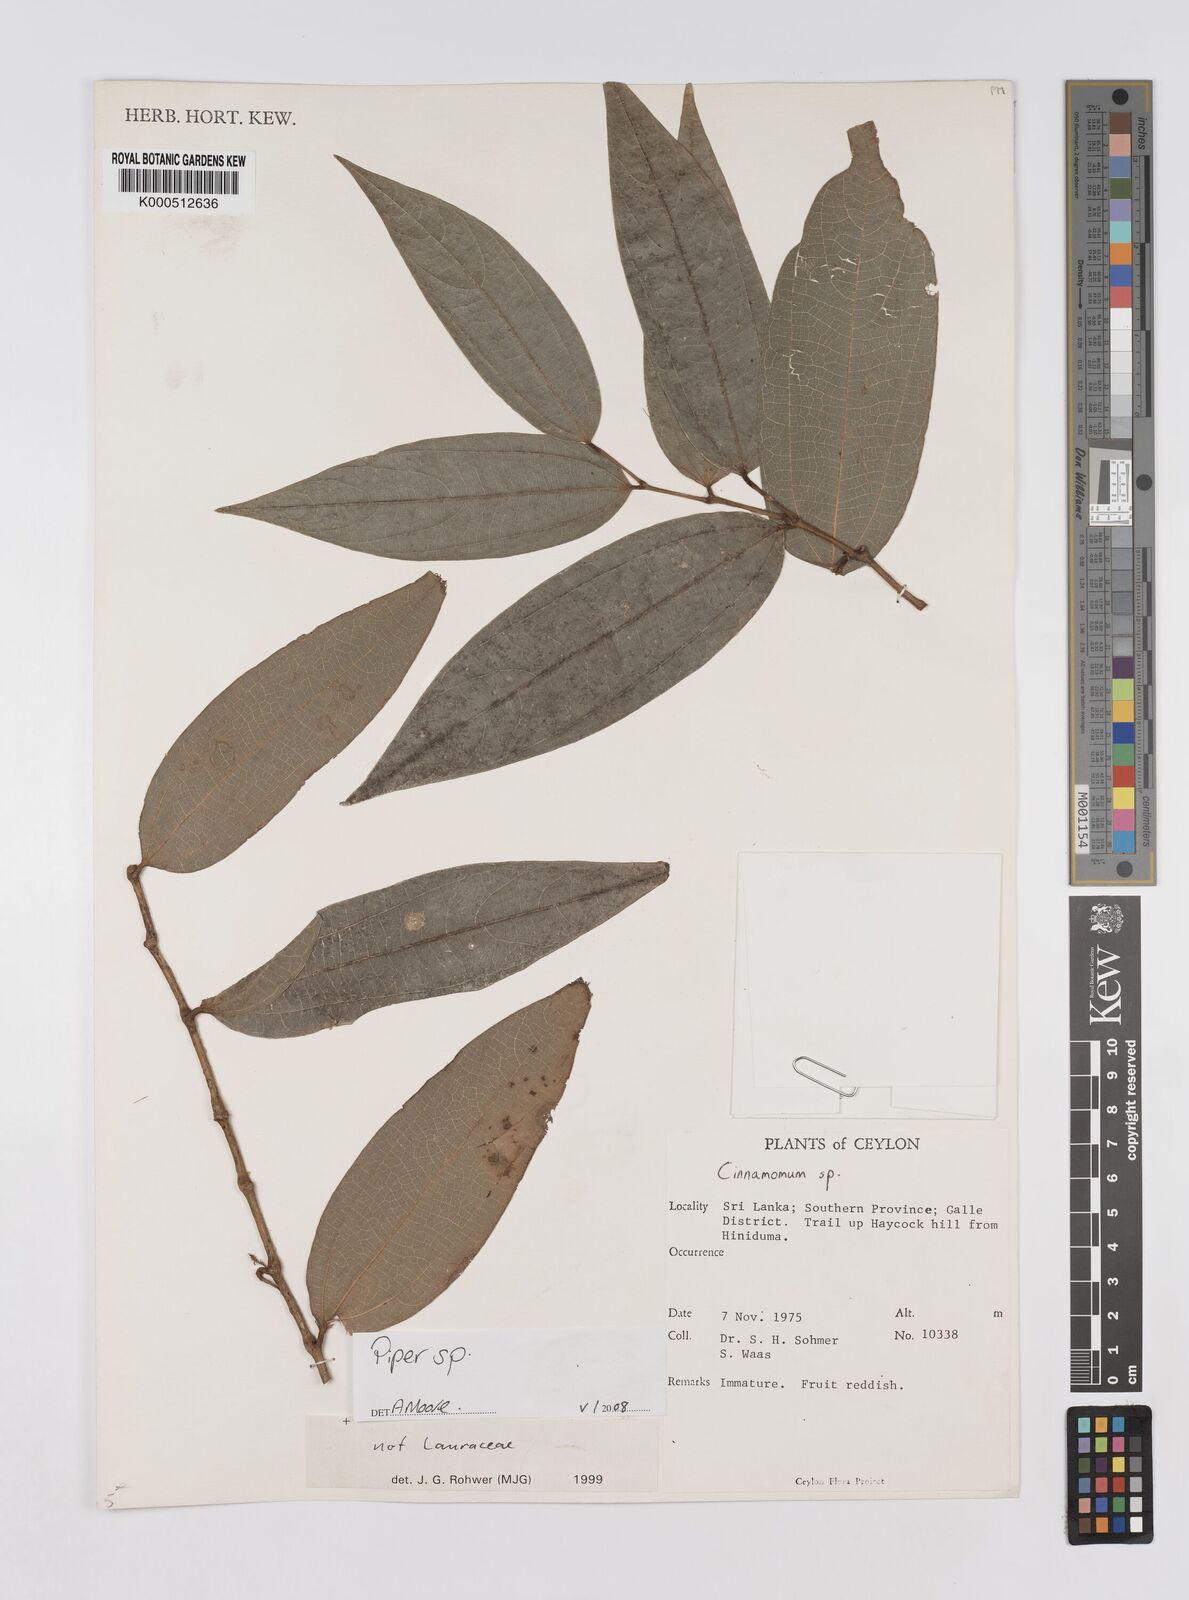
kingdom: Plantae
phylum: Tracheophyta
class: Magnoliopsida
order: Piperales
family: Piperaceae
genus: Piper
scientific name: Piper
